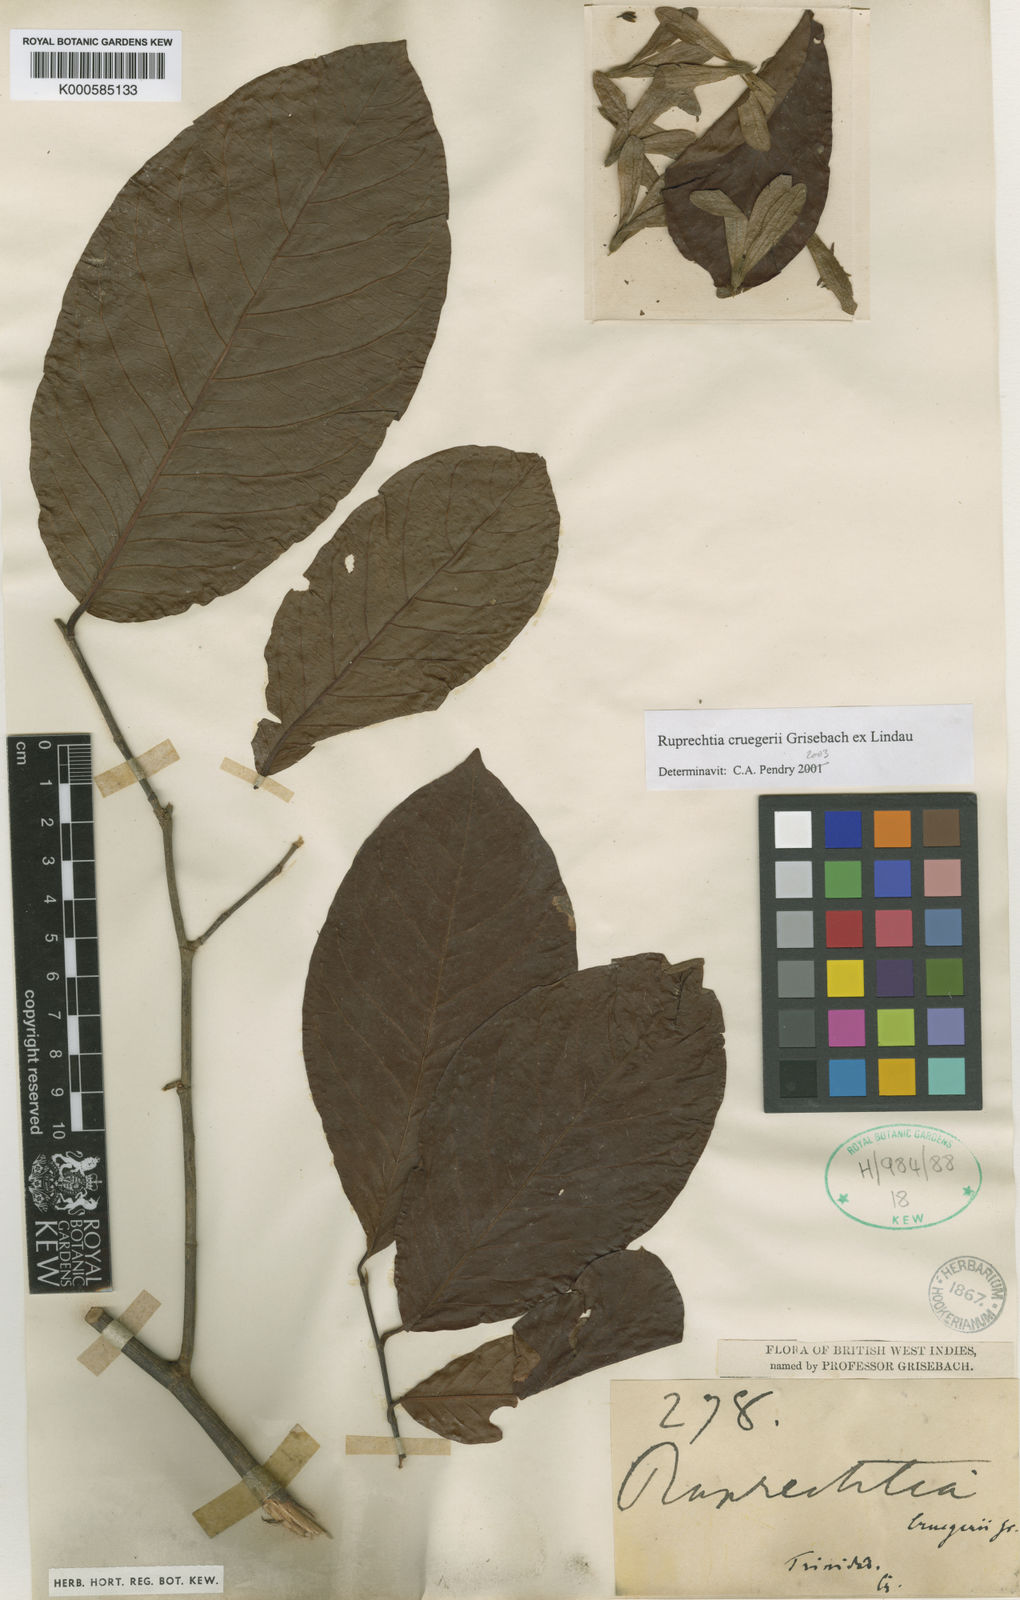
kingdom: Plantae
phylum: Tracheophyta
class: Magnoliopsida
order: Caryophyllales
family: Polygonaceae
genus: Ruprechtia
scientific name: Ruprechtia cruegeri
